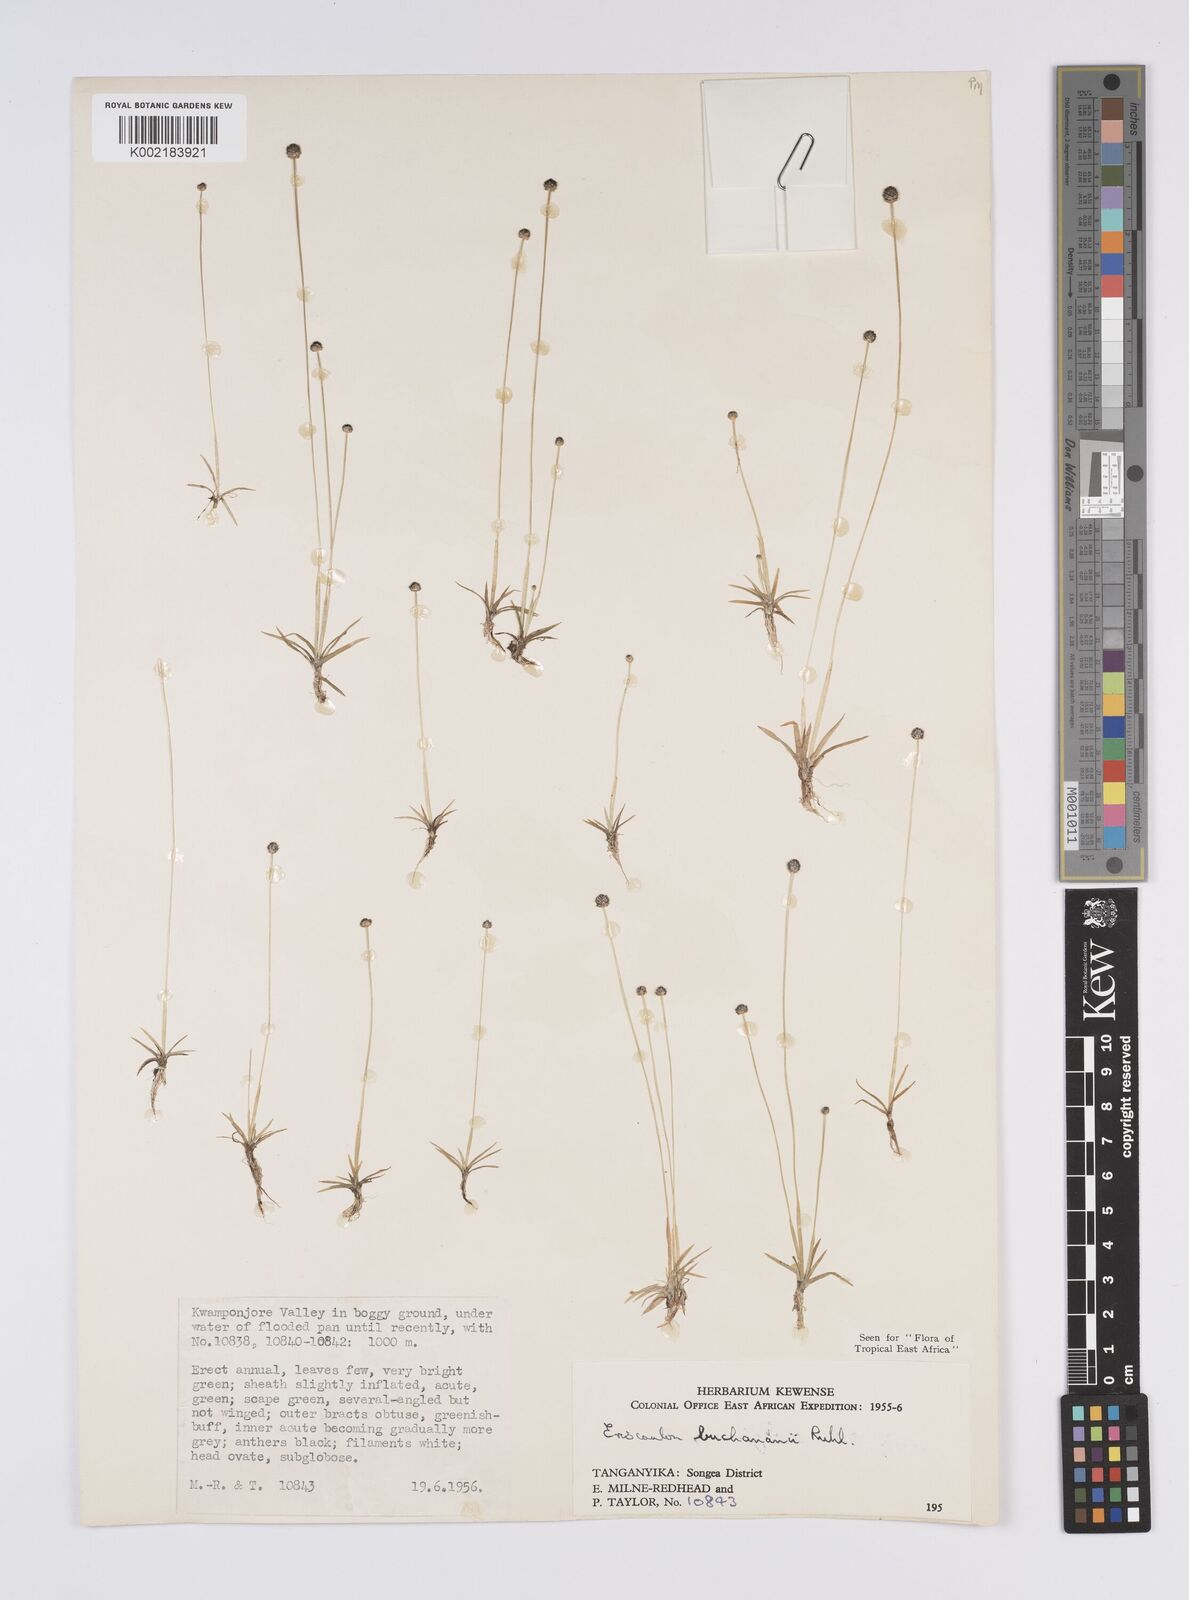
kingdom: Plantae
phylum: Tracheophyta
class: Liliopsida
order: Poales
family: Eriocaulaceae
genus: Eriocaulon
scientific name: Eriocaulon buchananii
